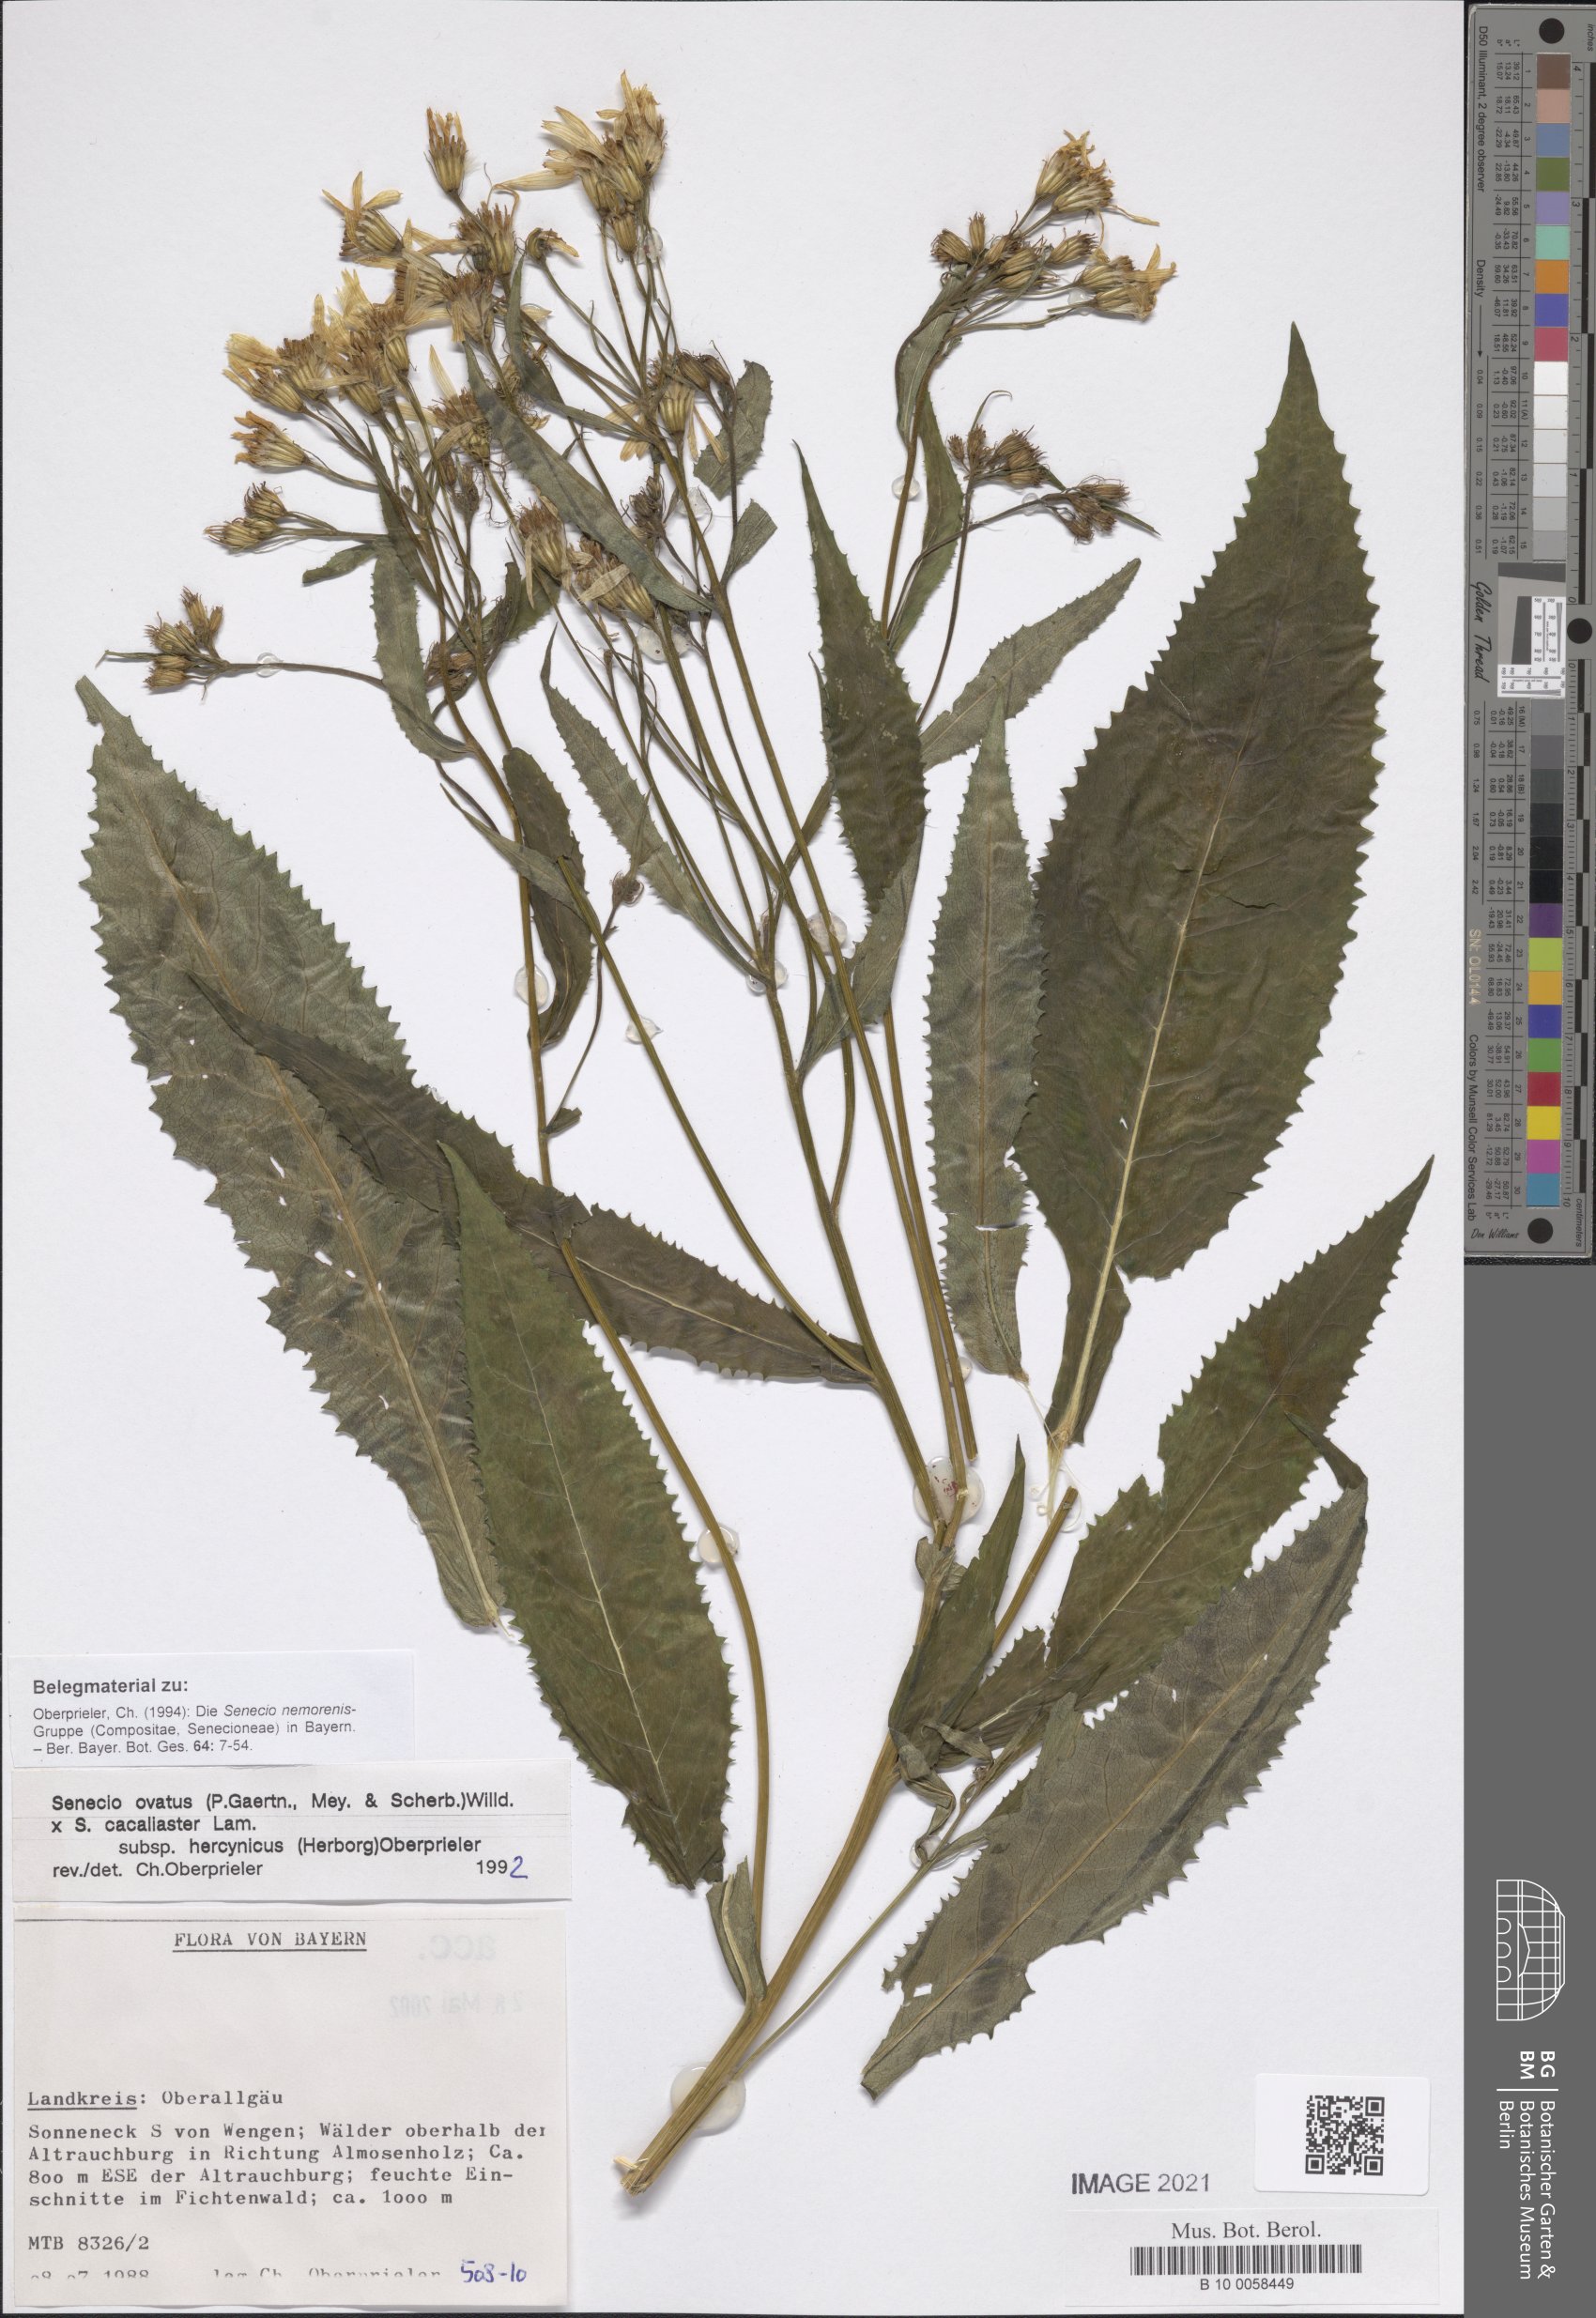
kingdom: Plantae
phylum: Tracheophyta
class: Magnoliopsida
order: Asterales
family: Asteraceae
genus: Senecio
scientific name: Senecio ovatus
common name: Wood ragwort
